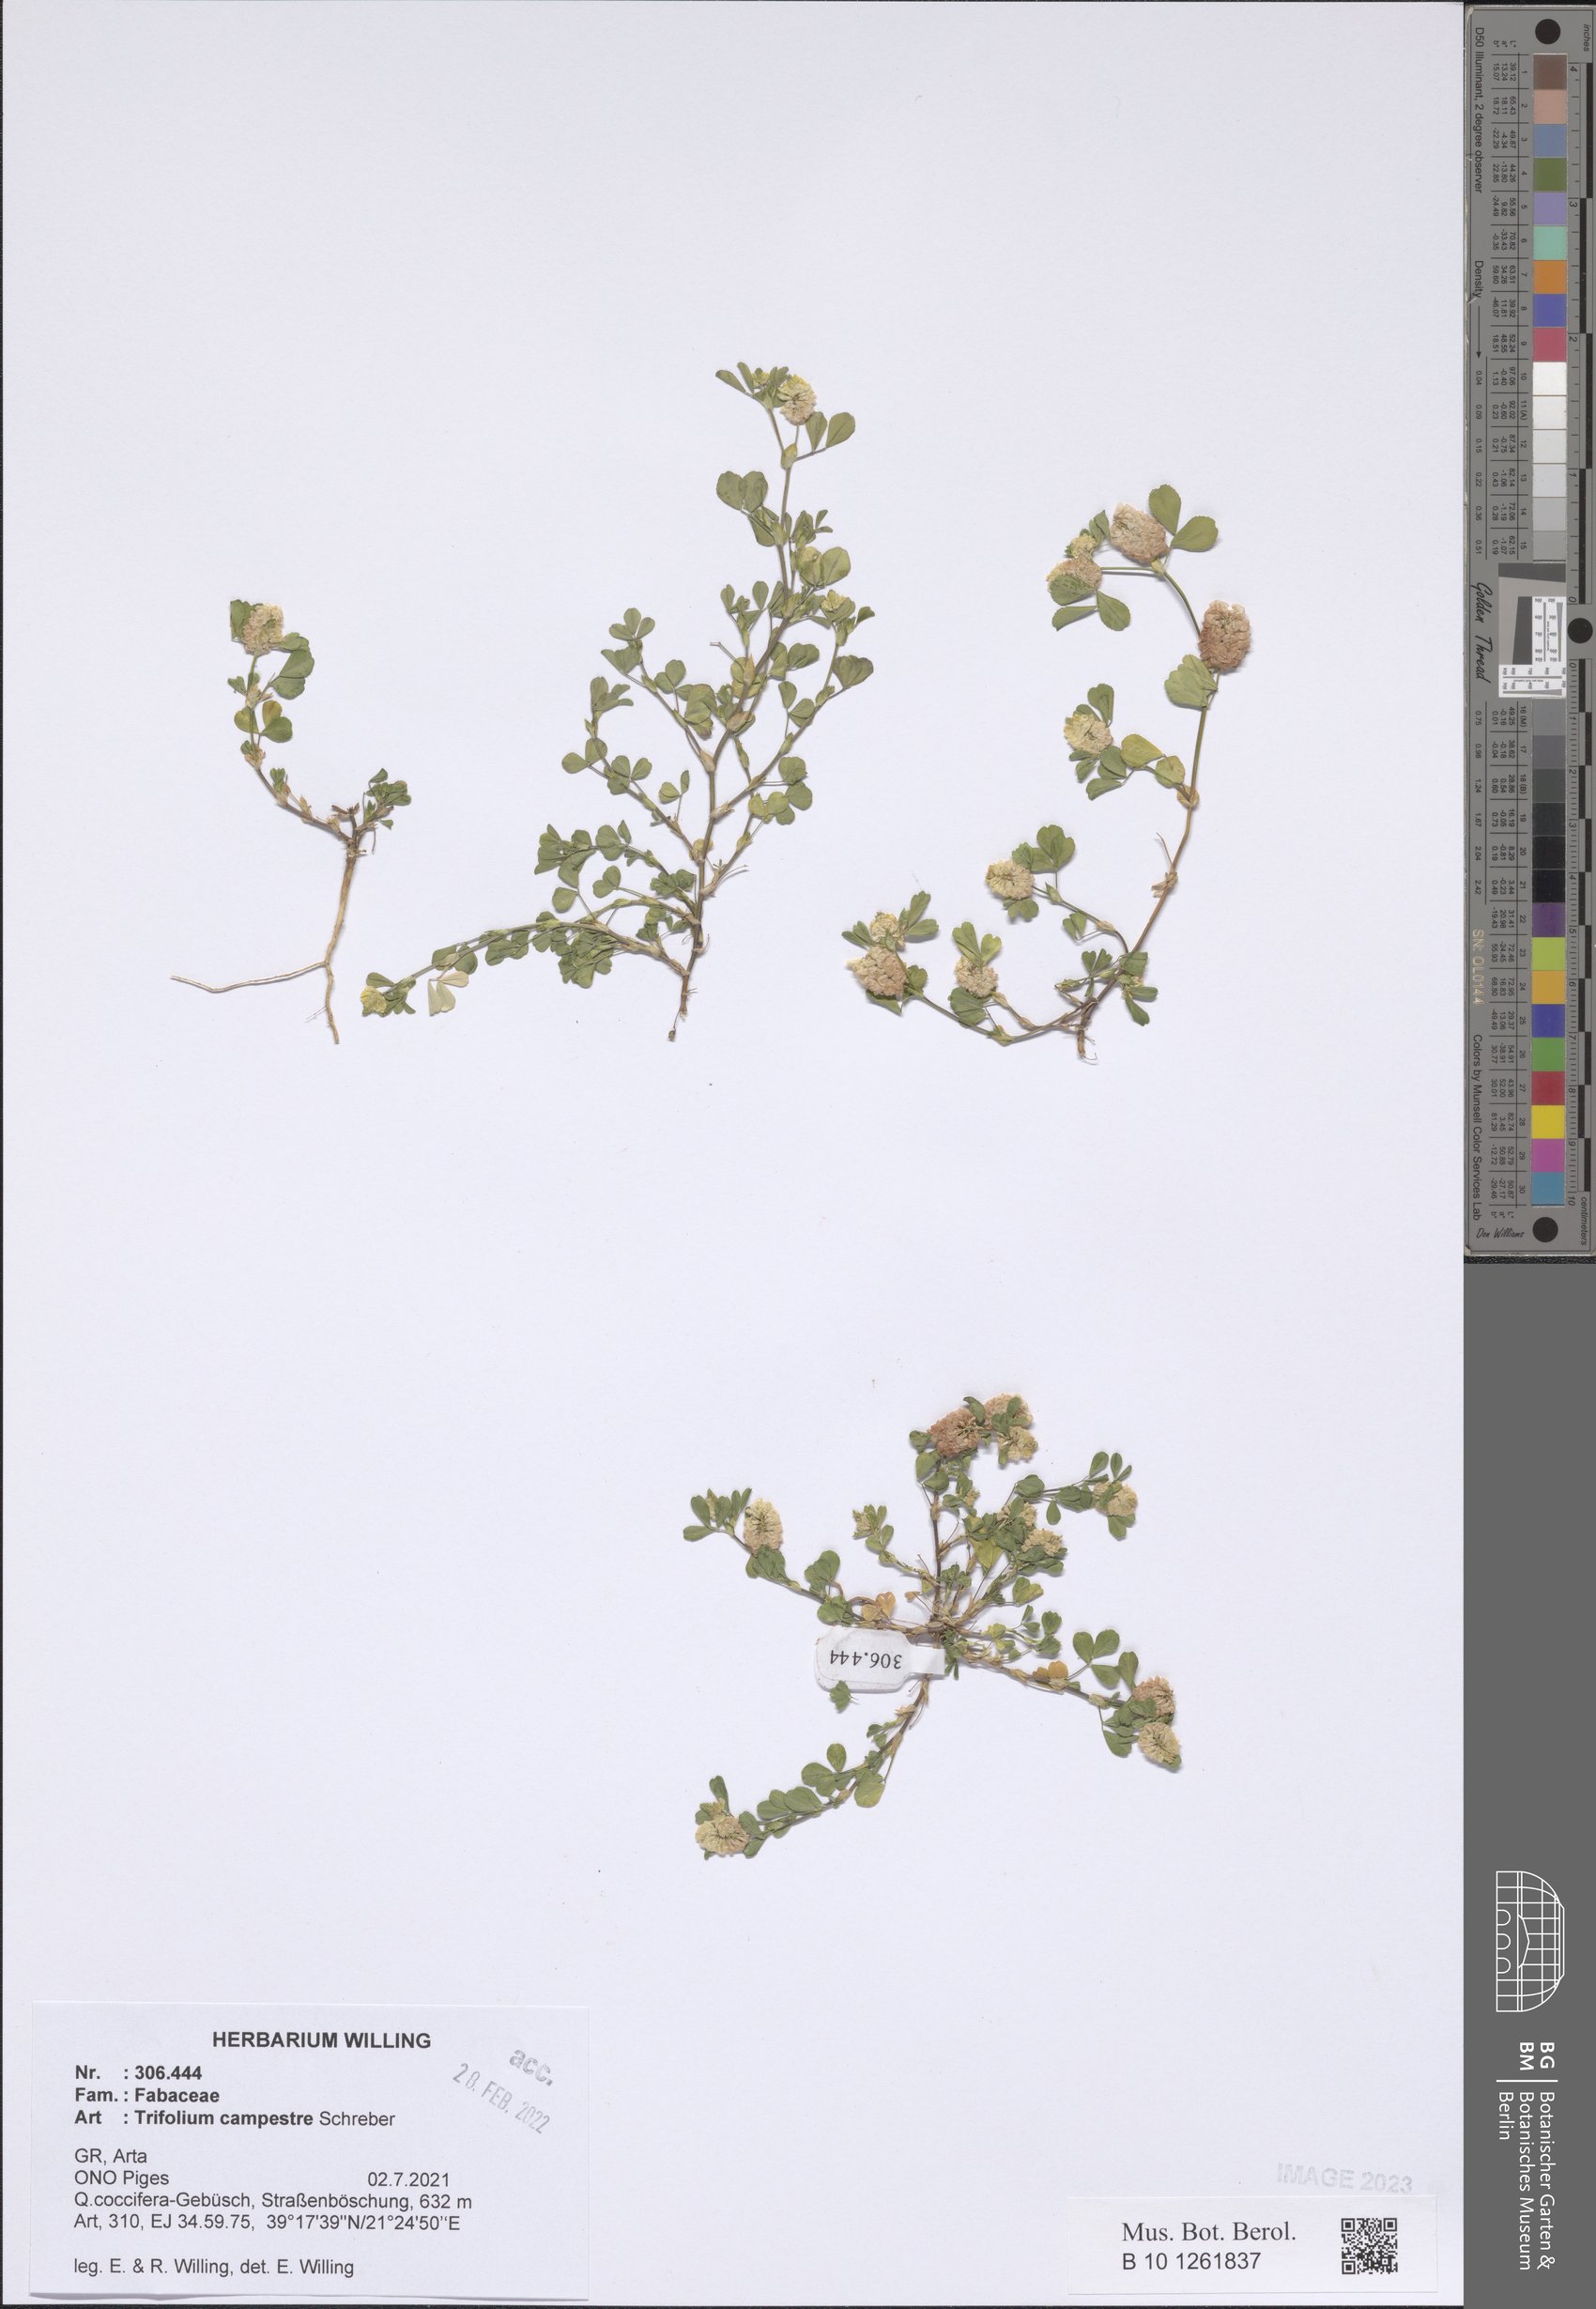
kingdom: Plantae
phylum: Tracheophyta
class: Magnoliopsida
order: Fabales
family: Fabaceae
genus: Trifolium
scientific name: Trifolium campestre
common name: Field clover
